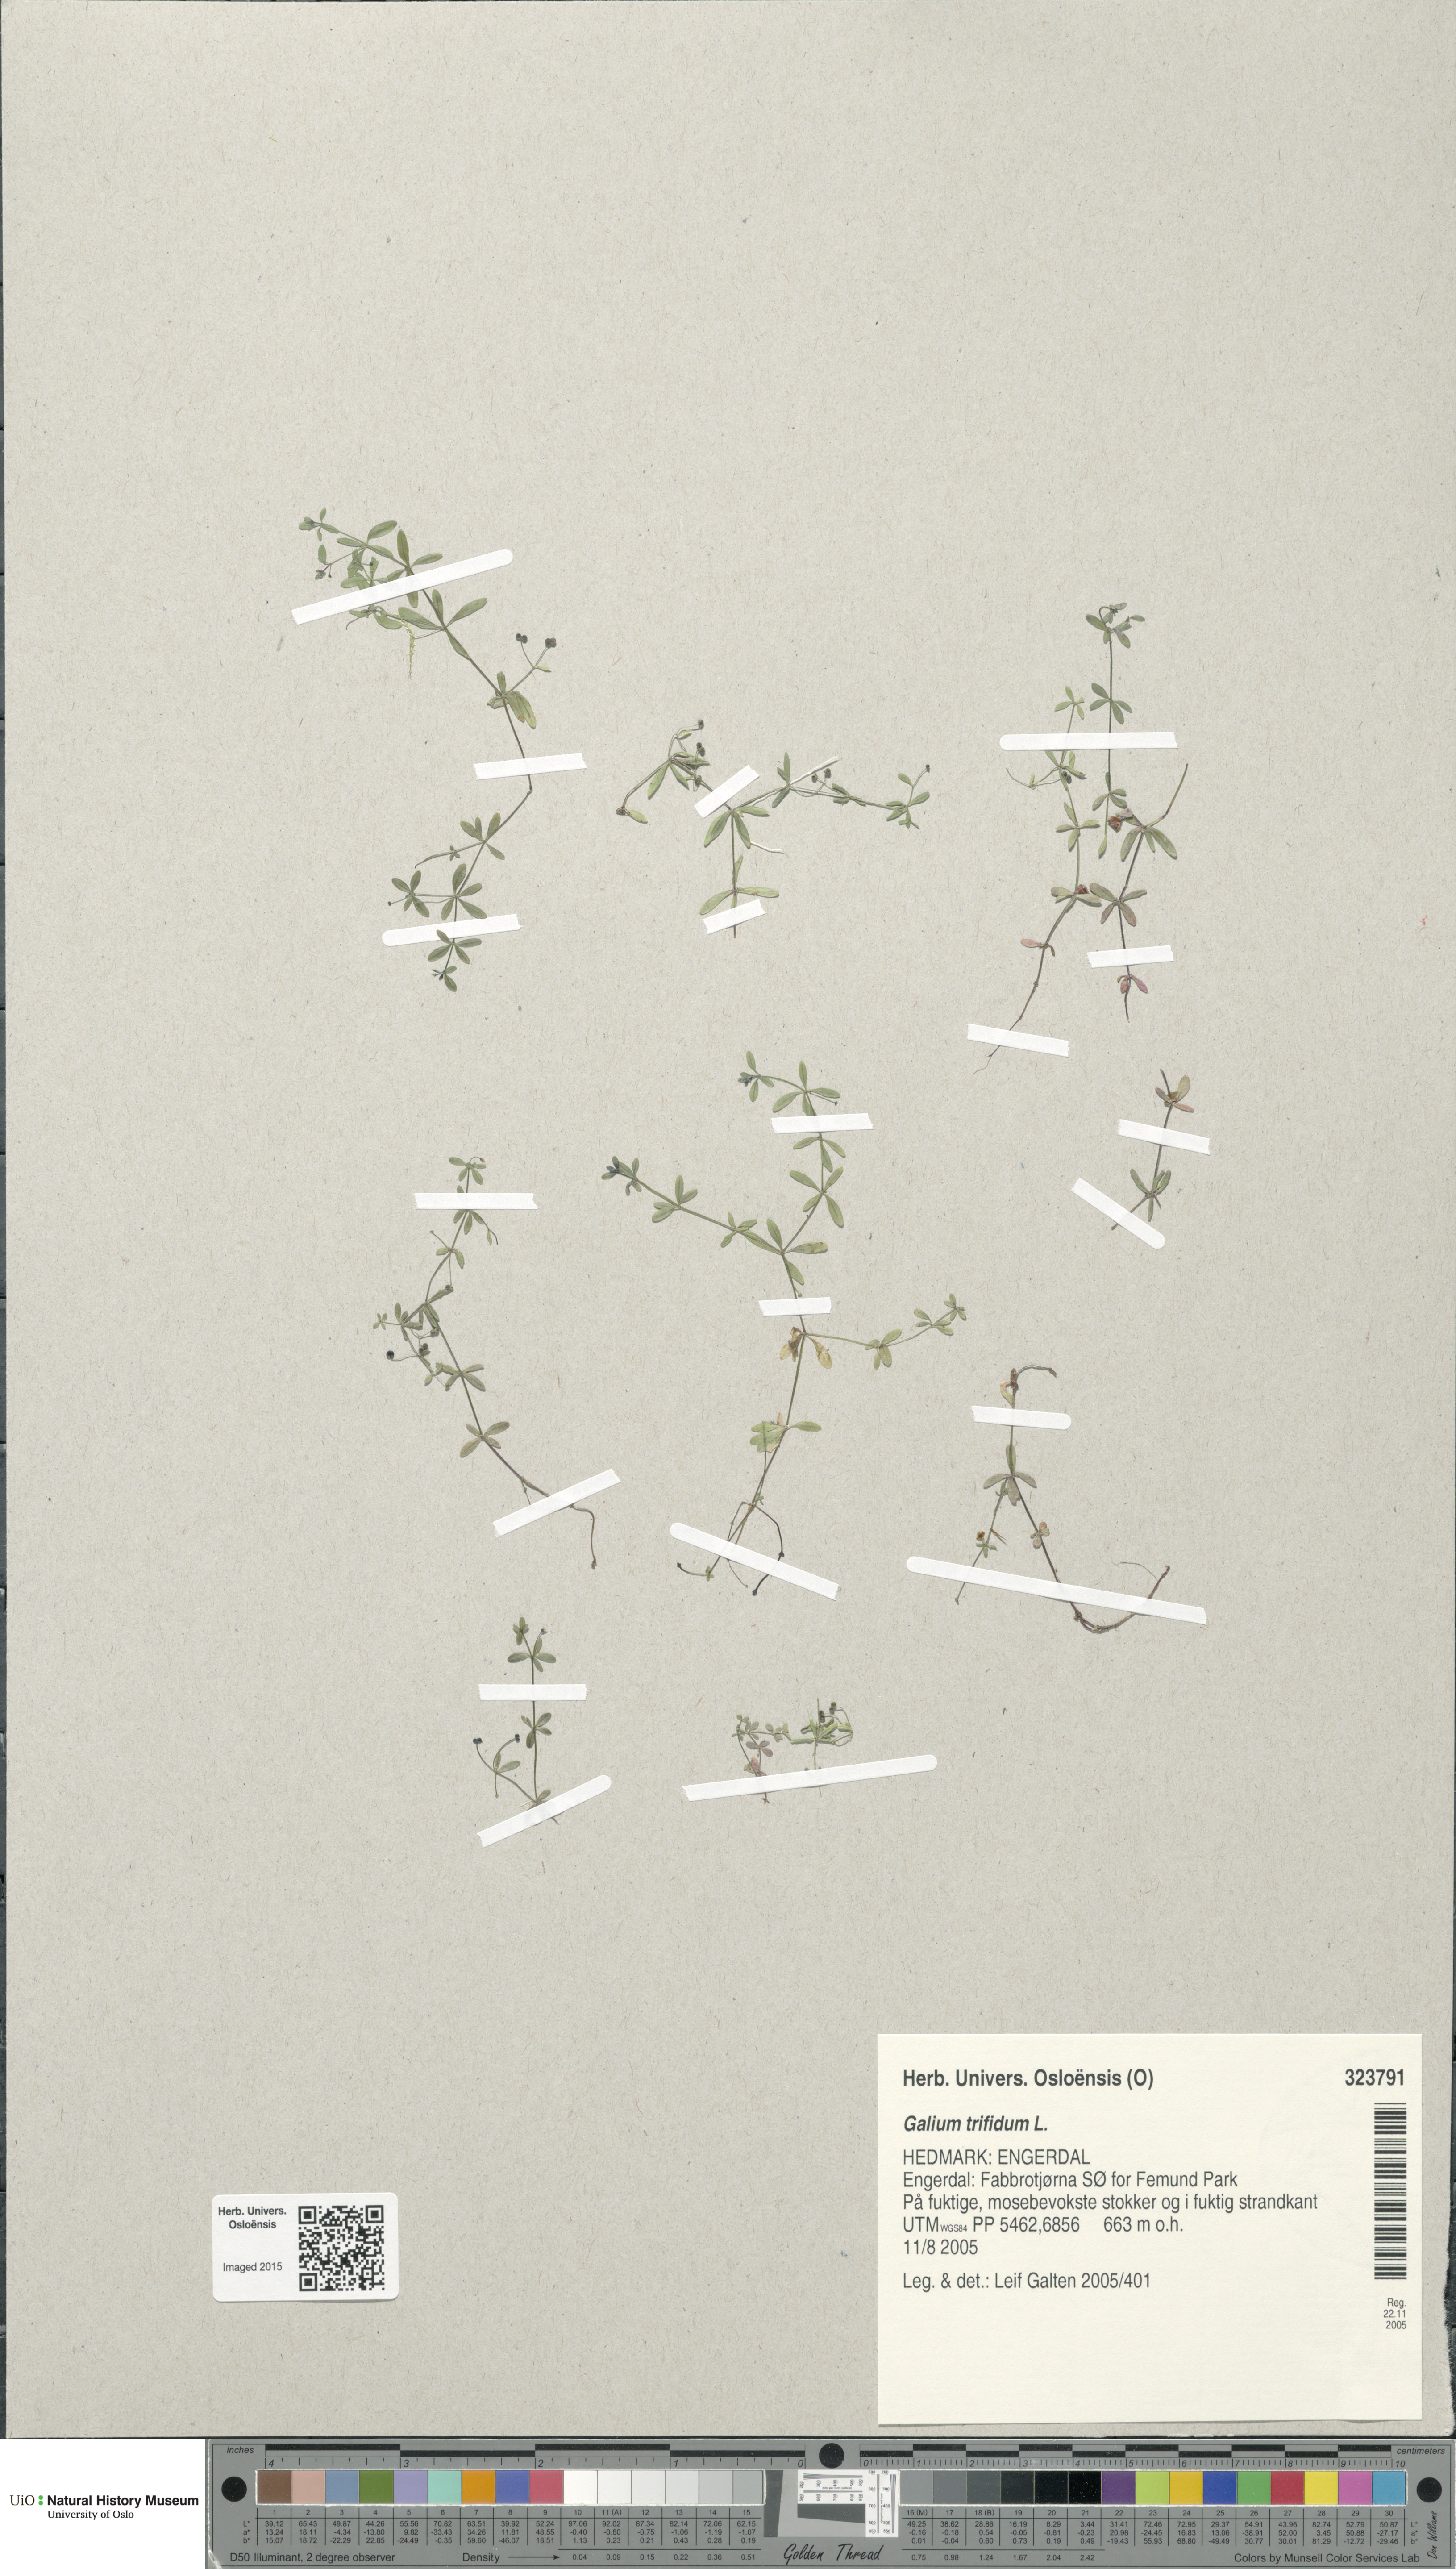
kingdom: Plantae
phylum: Tracheophyta
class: Magnoliopsida
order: Gentianales
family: Rubiaceae
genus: Galium
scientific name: Galium trifidum
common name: Small bedstraw
